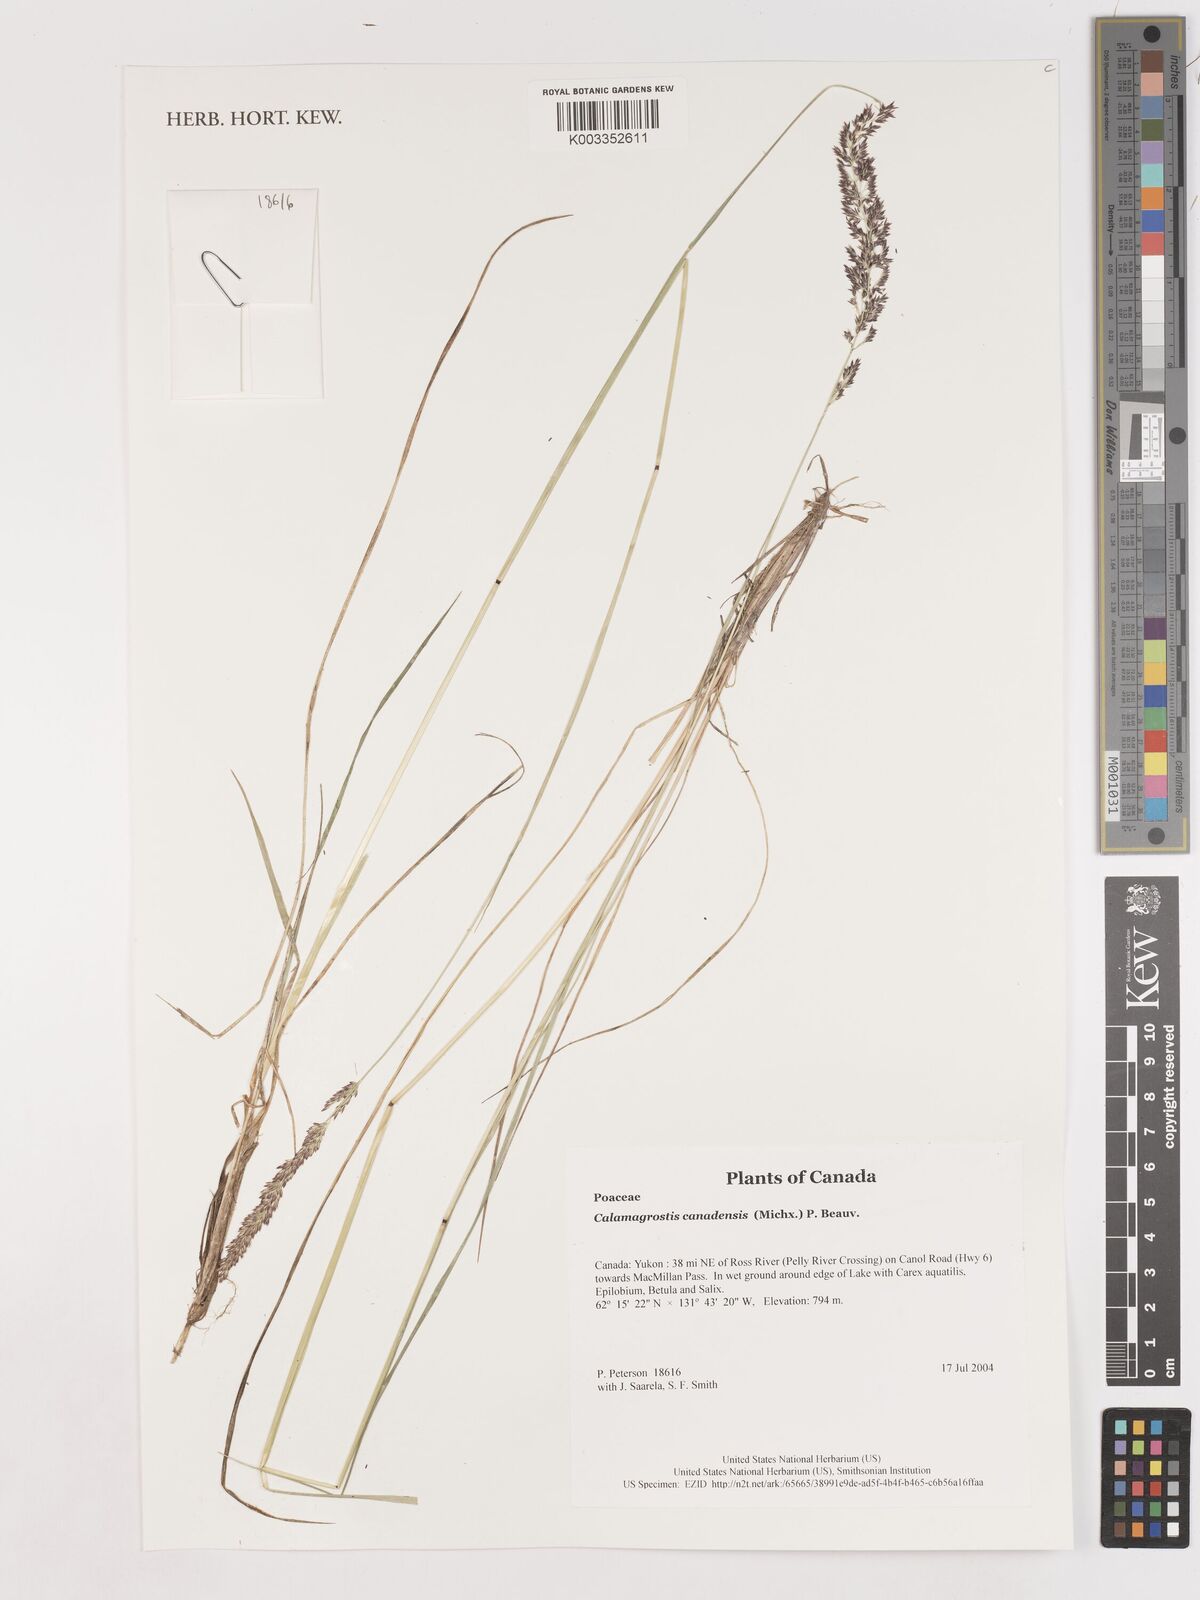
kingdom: Plantae
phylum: Tracheophyta
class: Liliopsida
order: Poales
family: Poaceae
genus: Calamagrostis
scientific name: Calamagrostis canadensis
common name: Canada bluejoint
